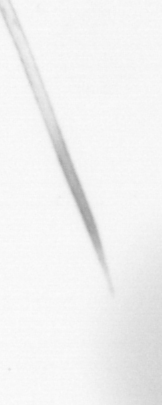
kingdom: Animalia
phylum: Arthropoda
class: Copepoda
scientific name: Copepoda
